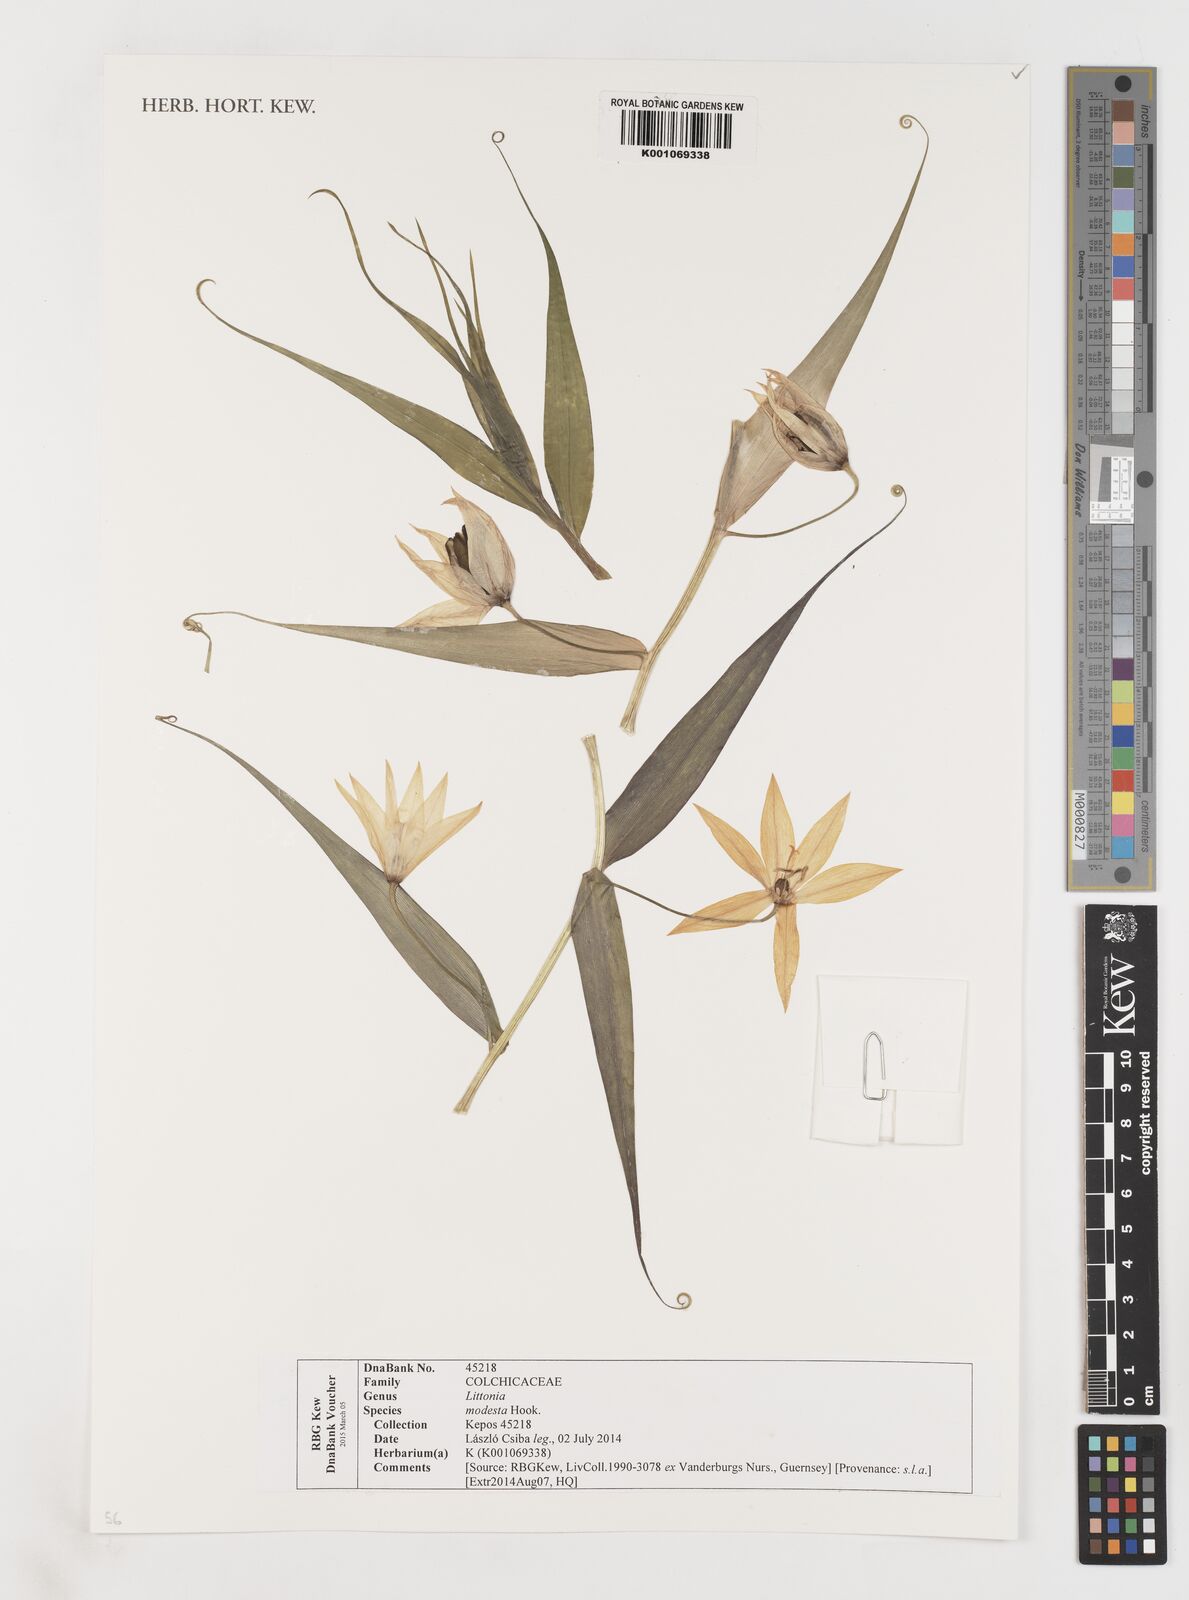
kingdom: Plantae
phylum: Tracheophyta
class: Liliopsida
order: Liliales
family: Colchicaceae
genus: Gloriosa
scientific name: Gloriosa modesta
